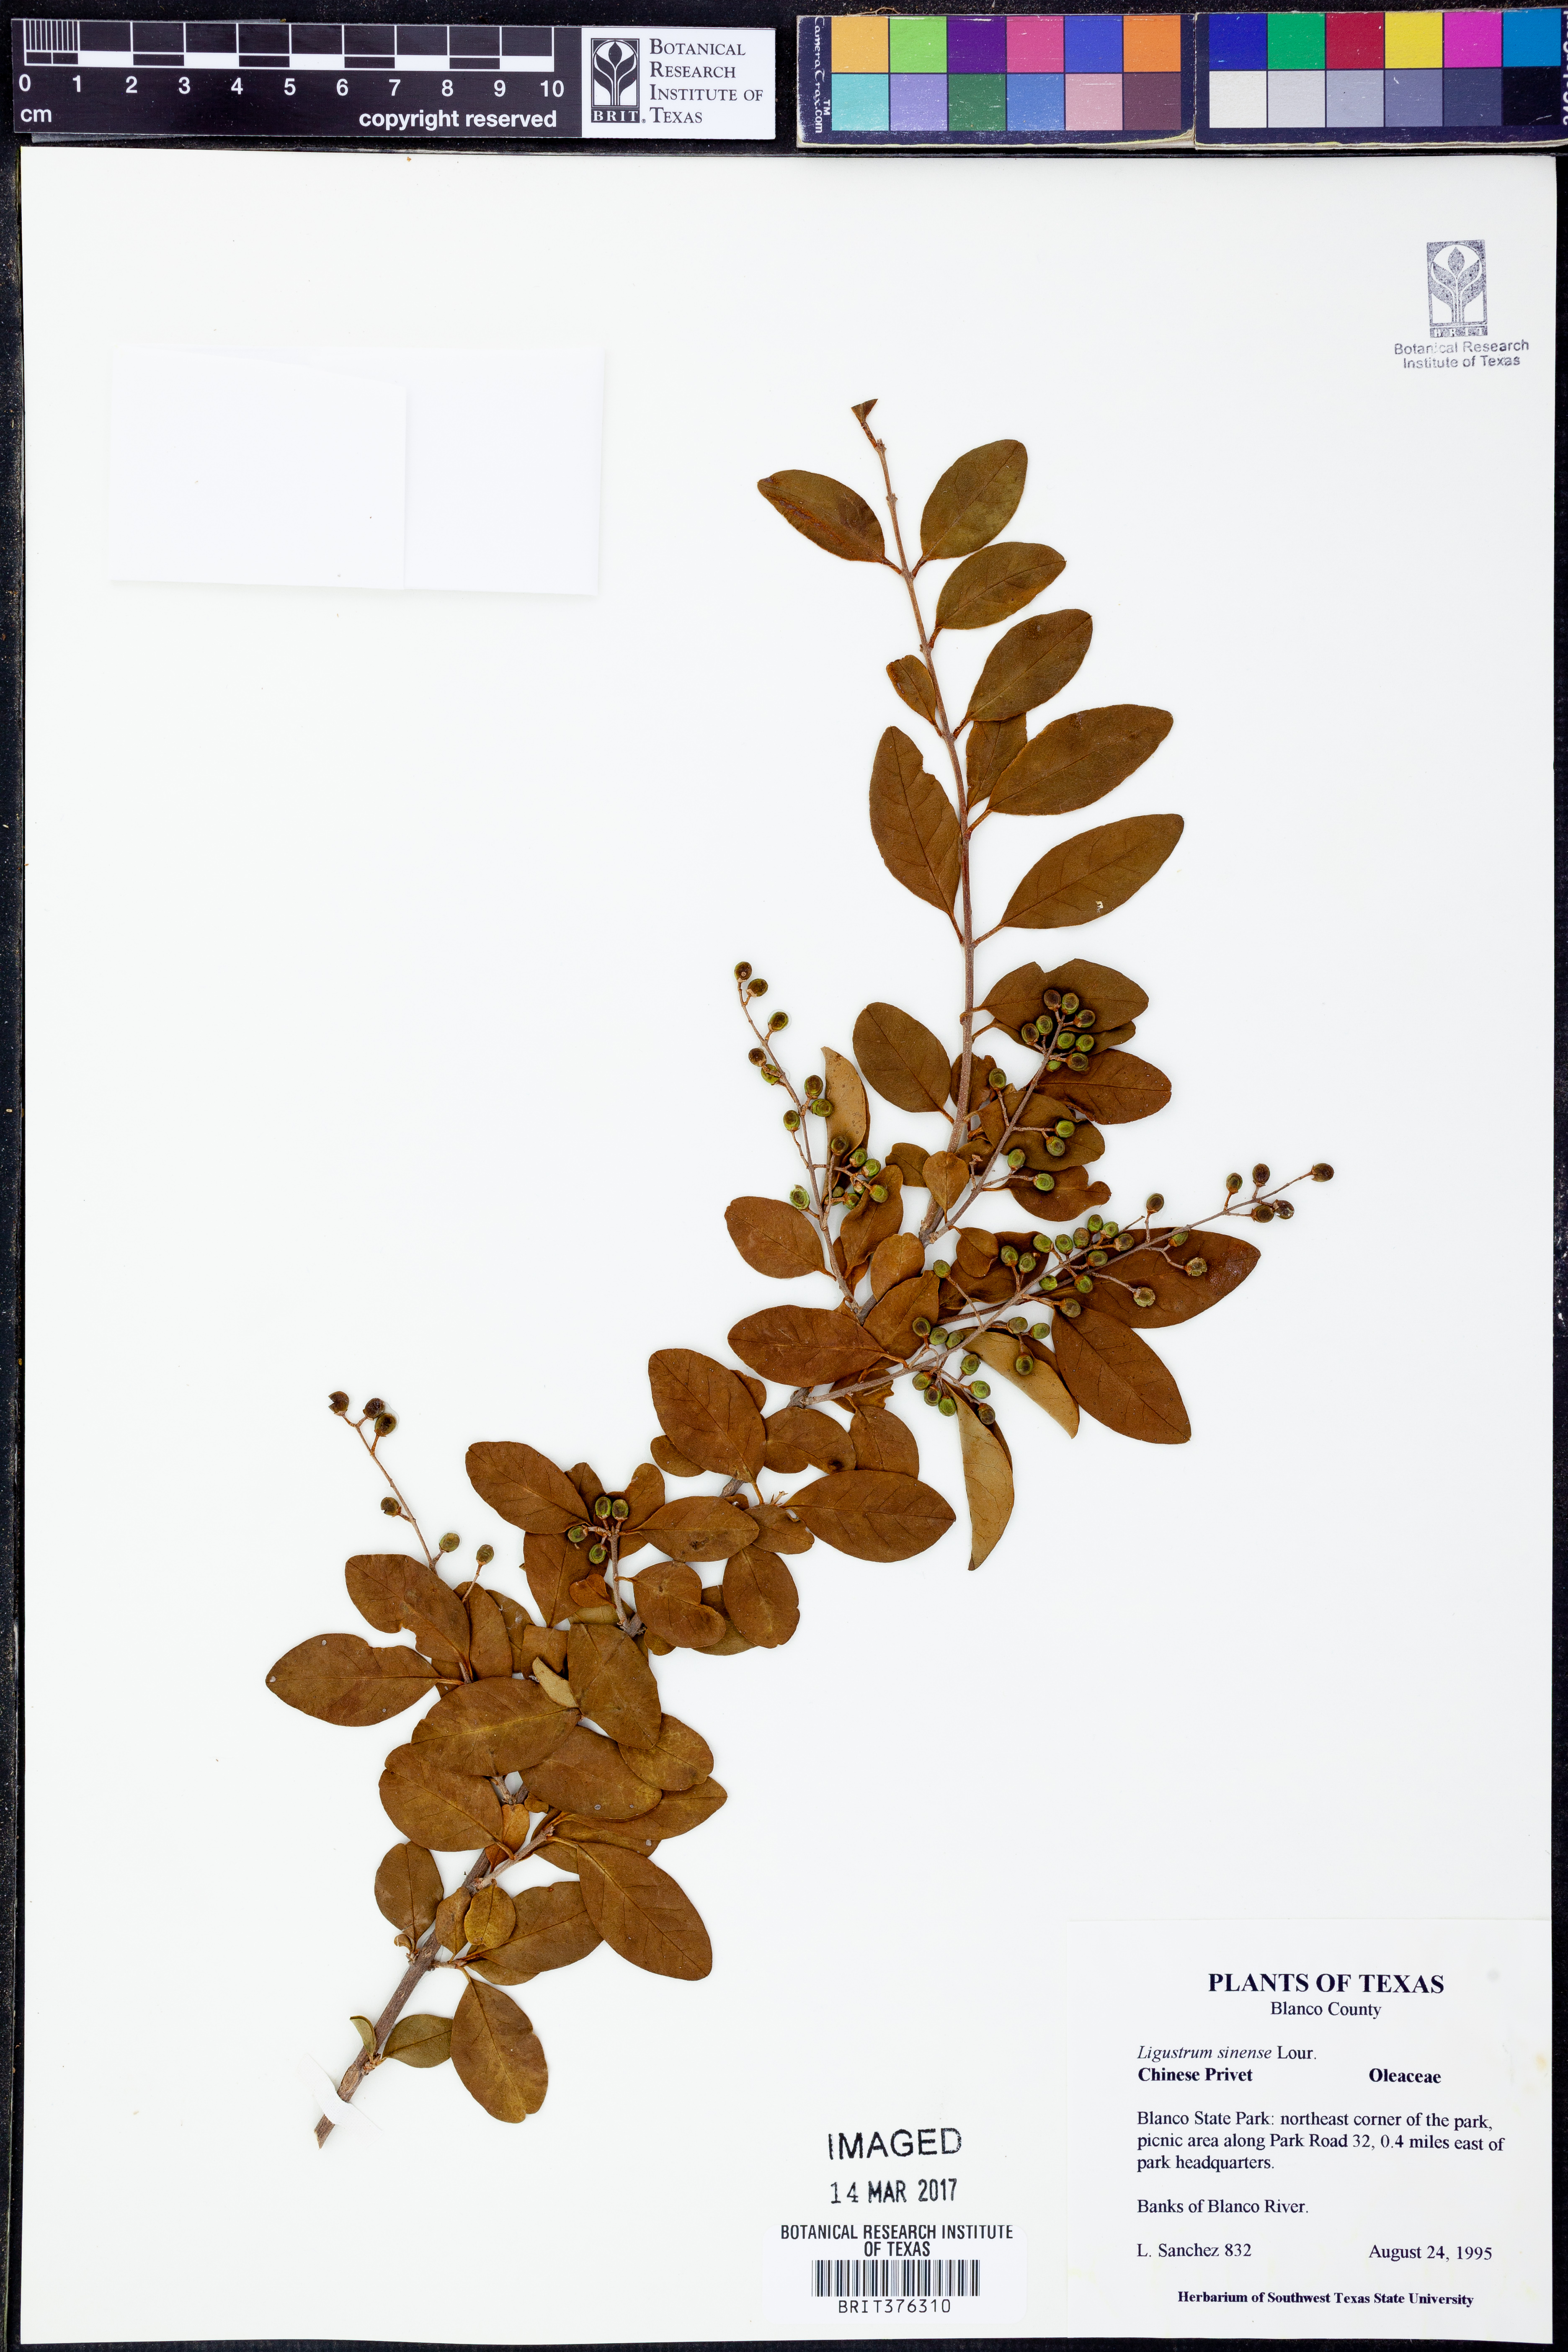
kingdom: Plantae
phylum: Tracheophyta
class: Magnoliopsida
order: Lamiales
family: Oleaceae
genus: Ligustrum
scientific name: Ligustrum sinense
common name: Chinese privet
